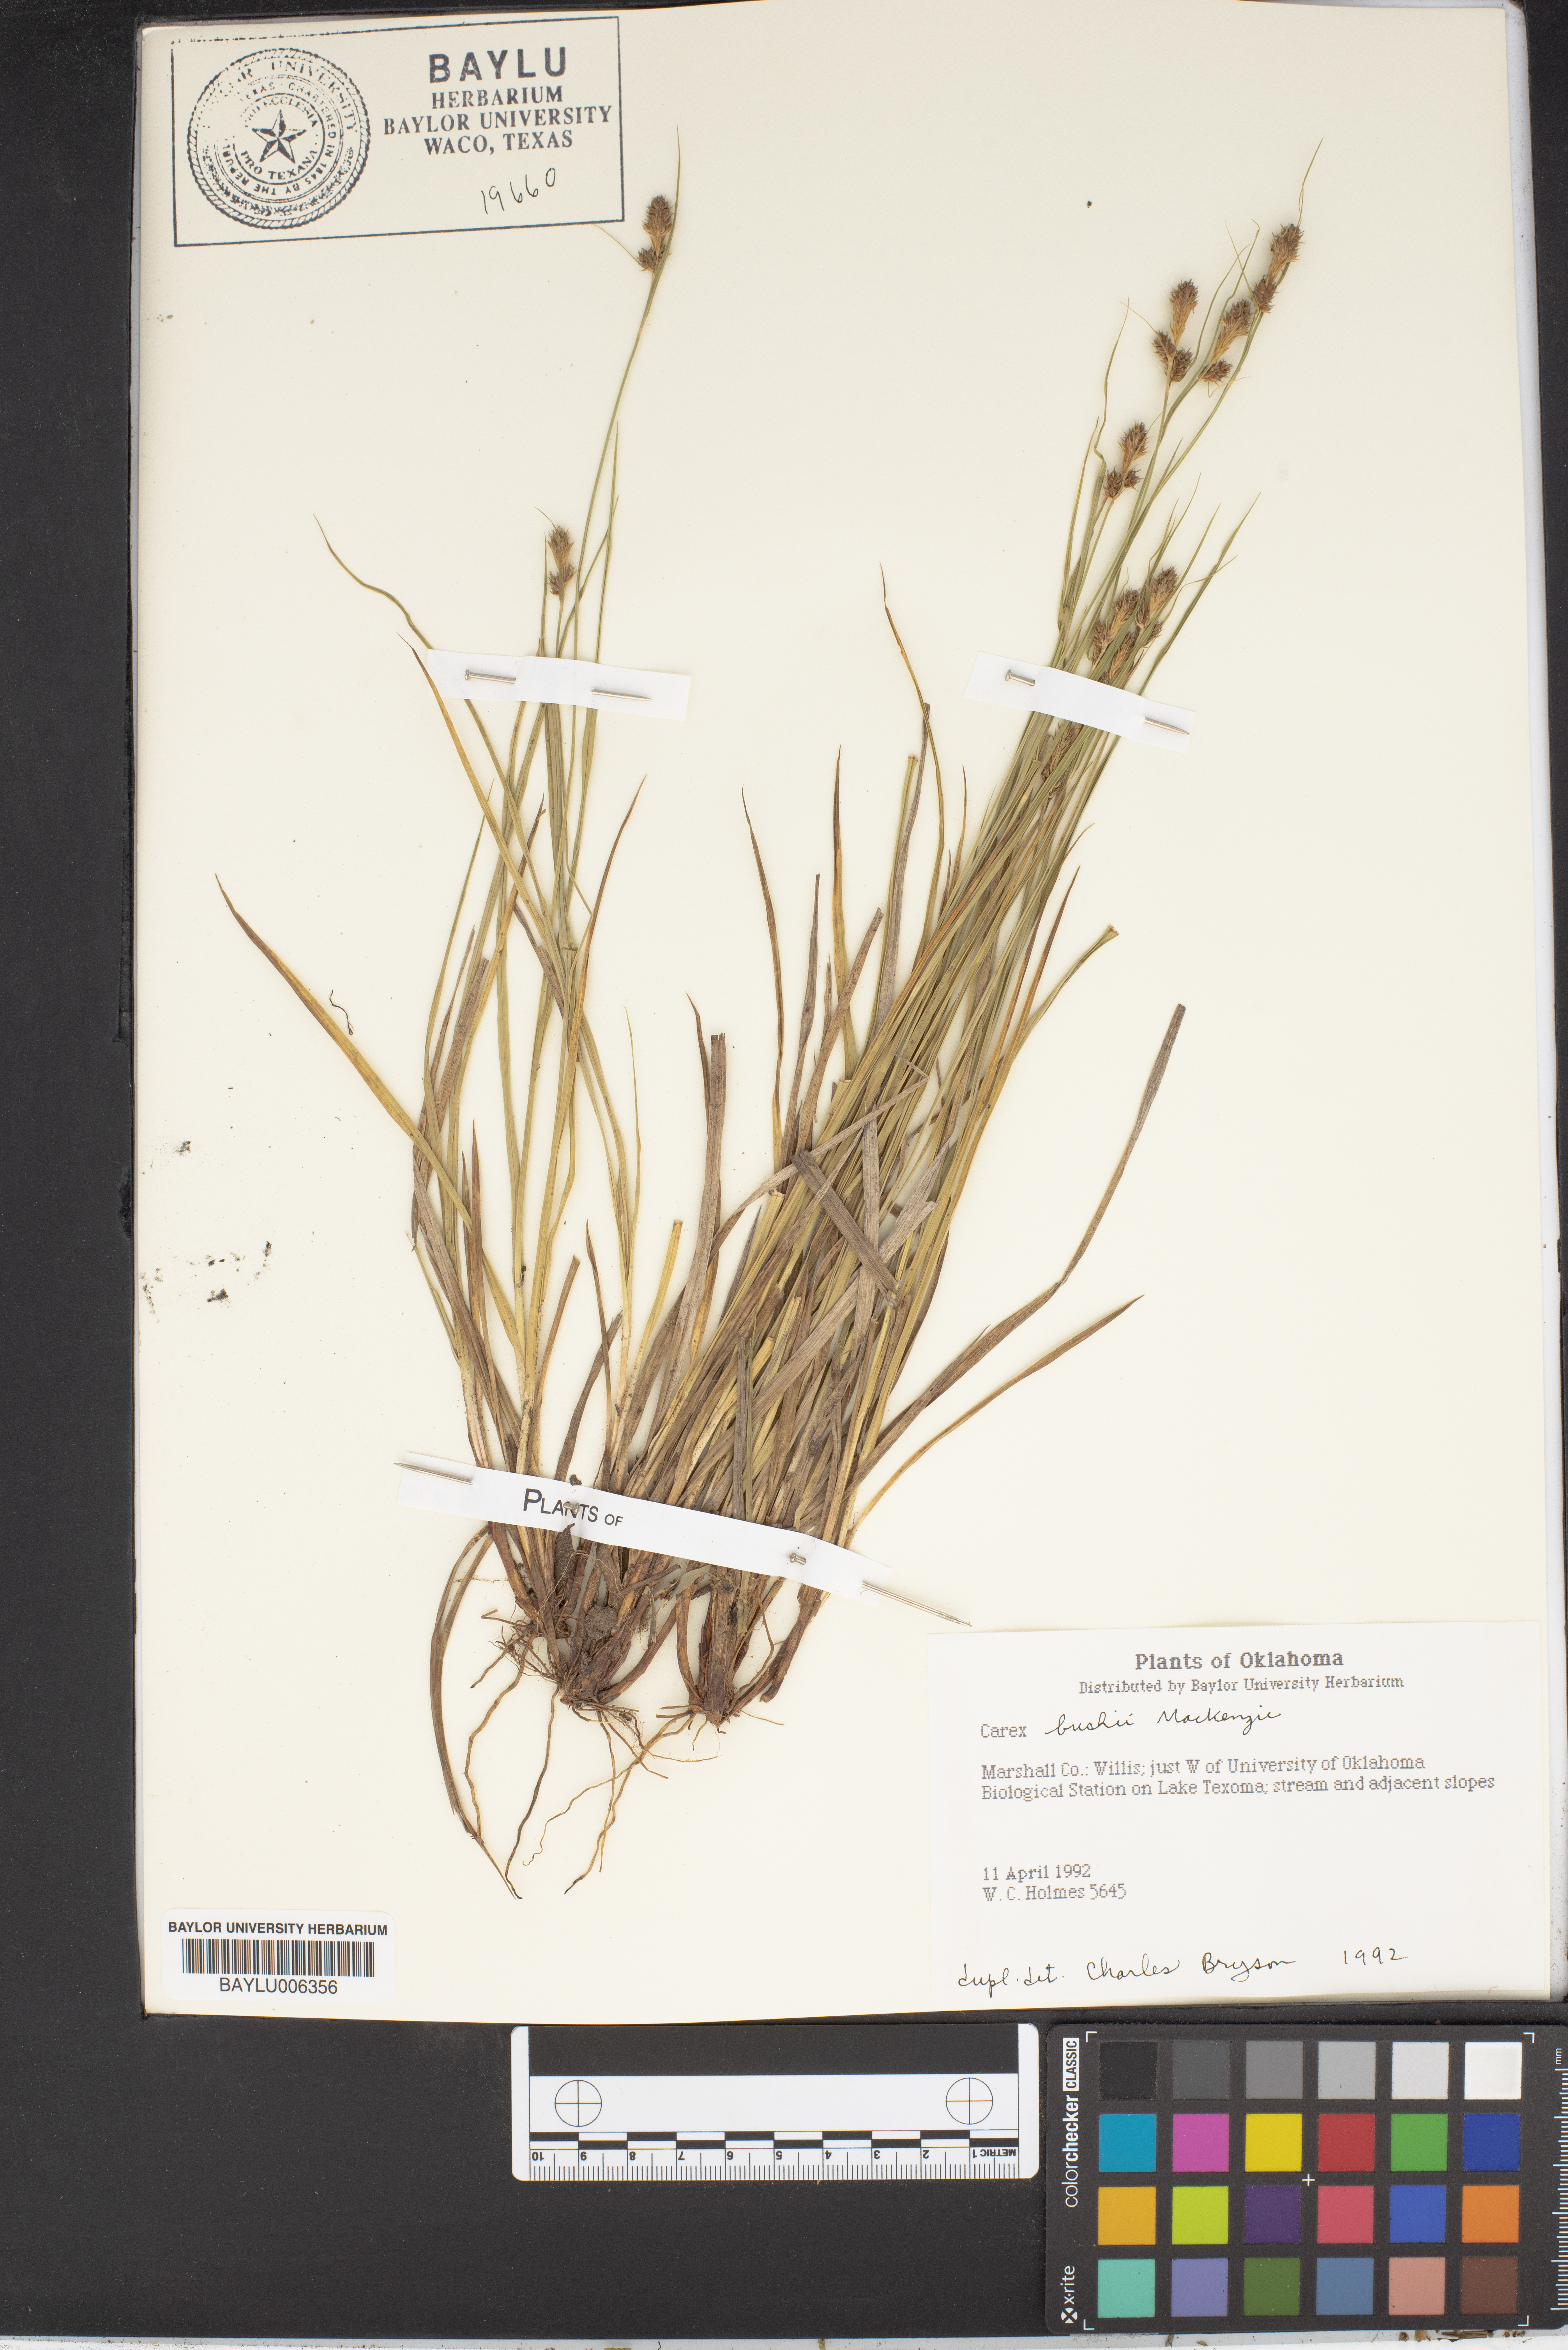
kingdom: Plantae
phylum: Tracheophyta
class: Liliopsida
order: Poales
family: Cyperaceae
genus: Carex
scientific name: Carex bushii
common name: Bush's sedge
